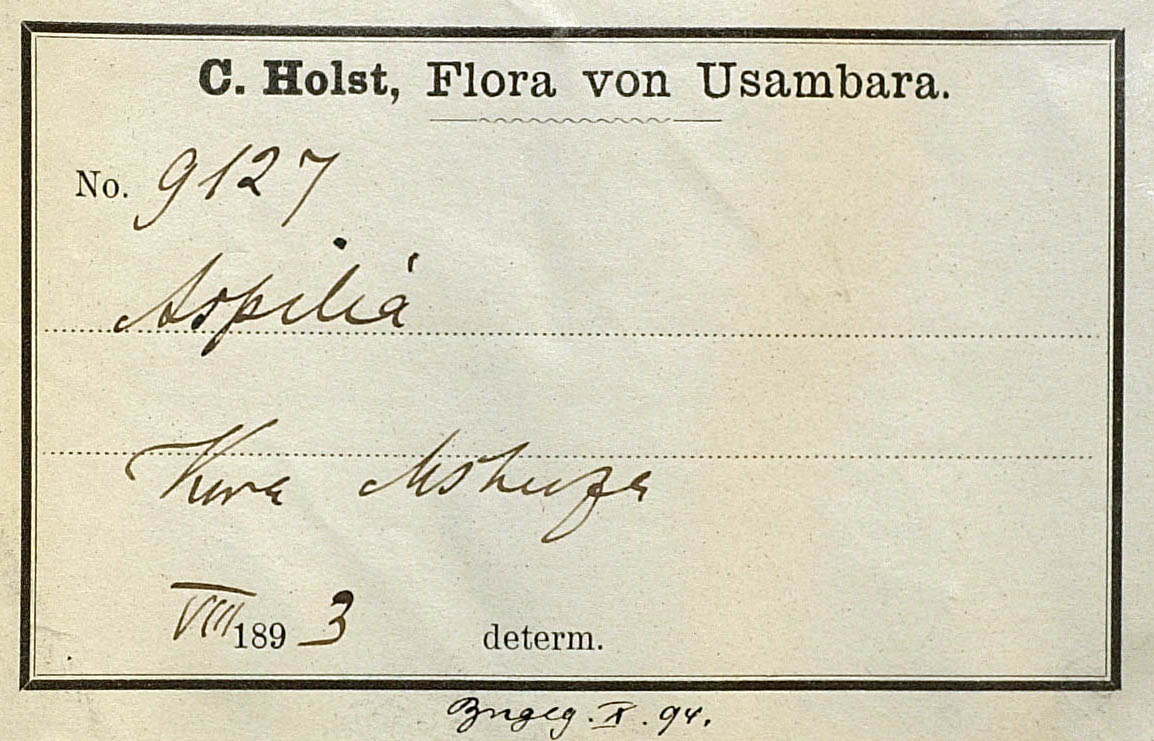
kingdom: Plantae
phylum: Tracheophyta
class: Magnoliopsida
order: Asterales
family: Asteraceae
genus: Aspilia
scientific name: Aspilia pluriseta
